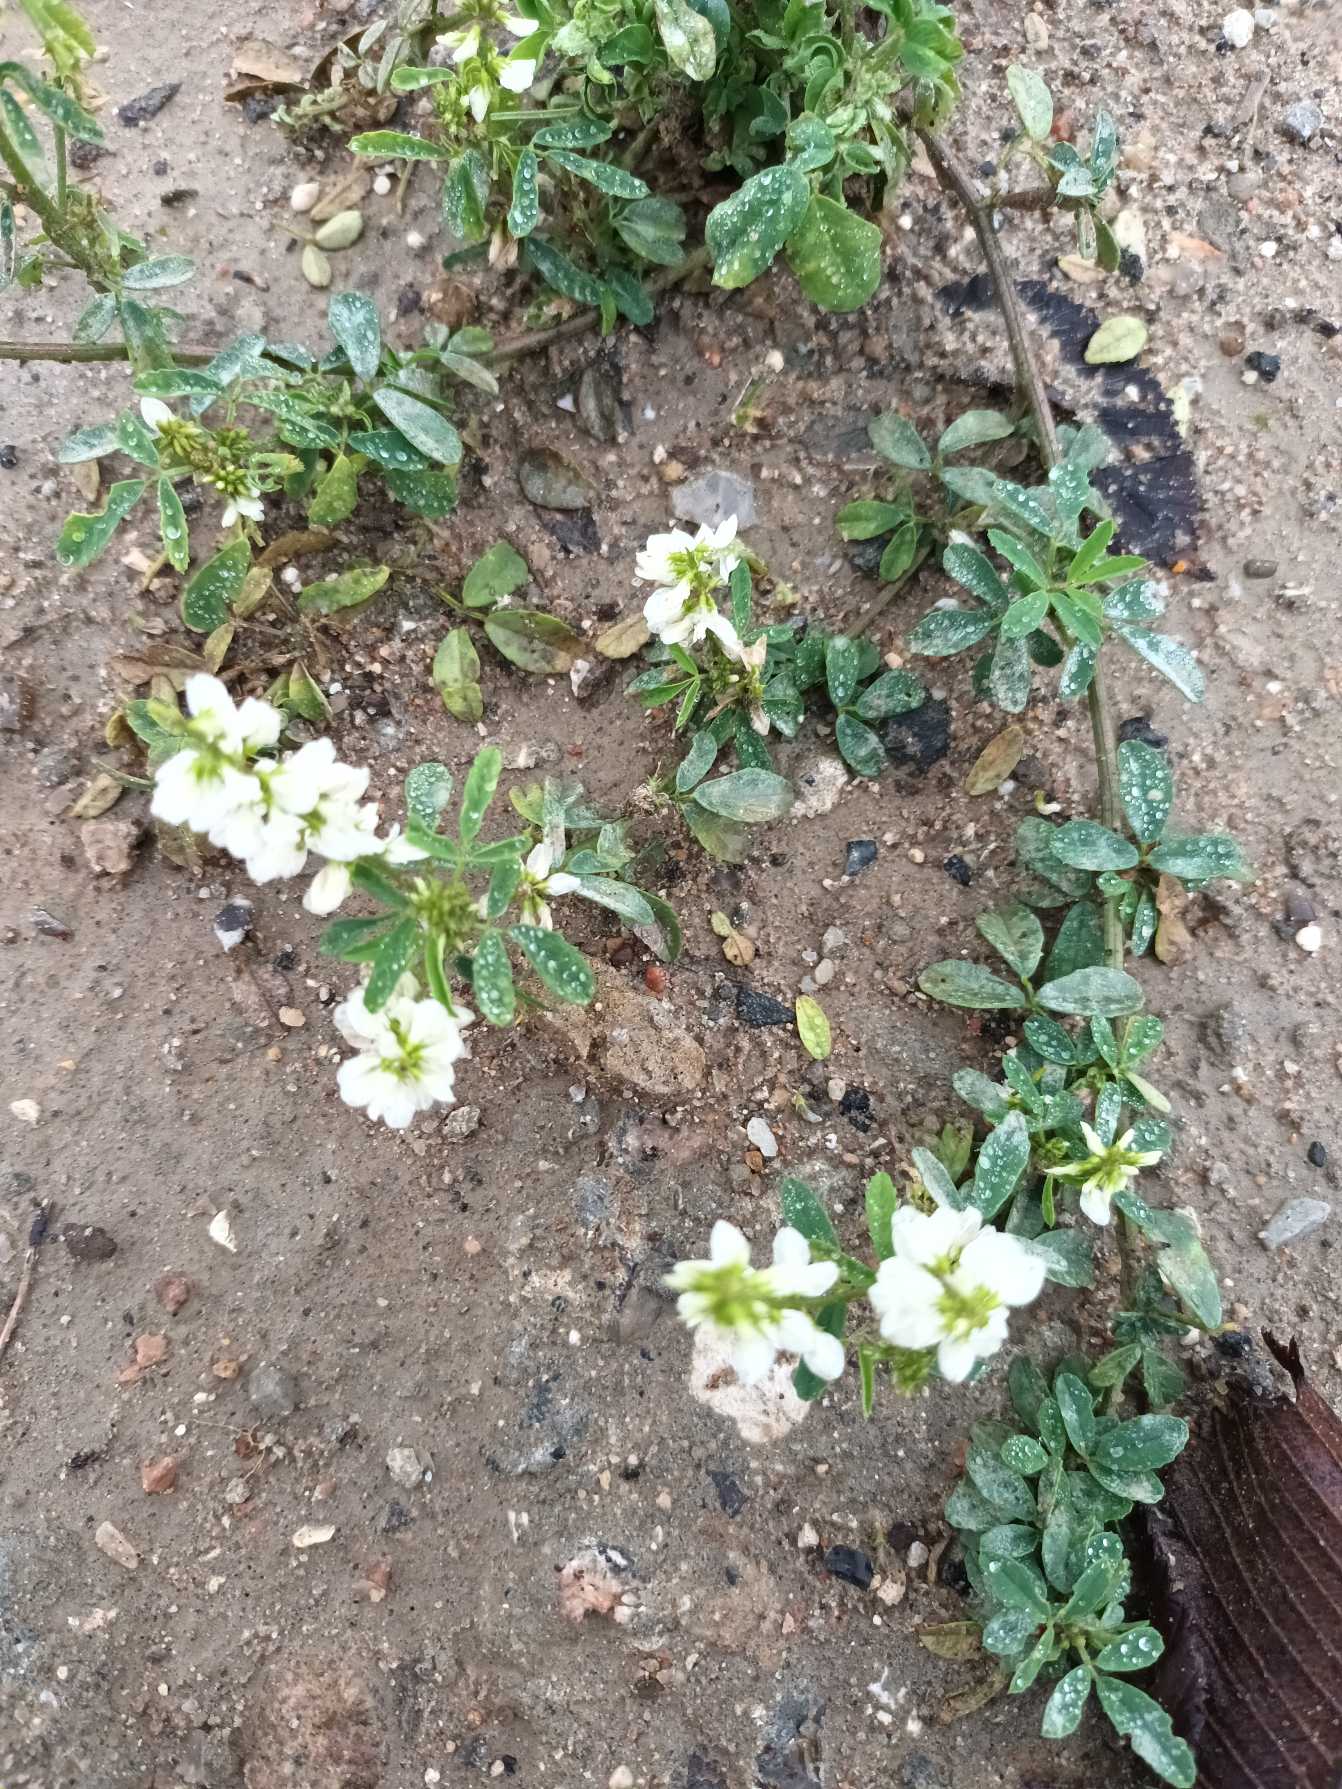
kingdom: Plantae
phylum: Tracheophyta
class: Magnoliopsida
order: Fabales
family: Fabaceae
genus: Melilotus
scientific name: Melilotus albus
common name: Hvid stenkløver
